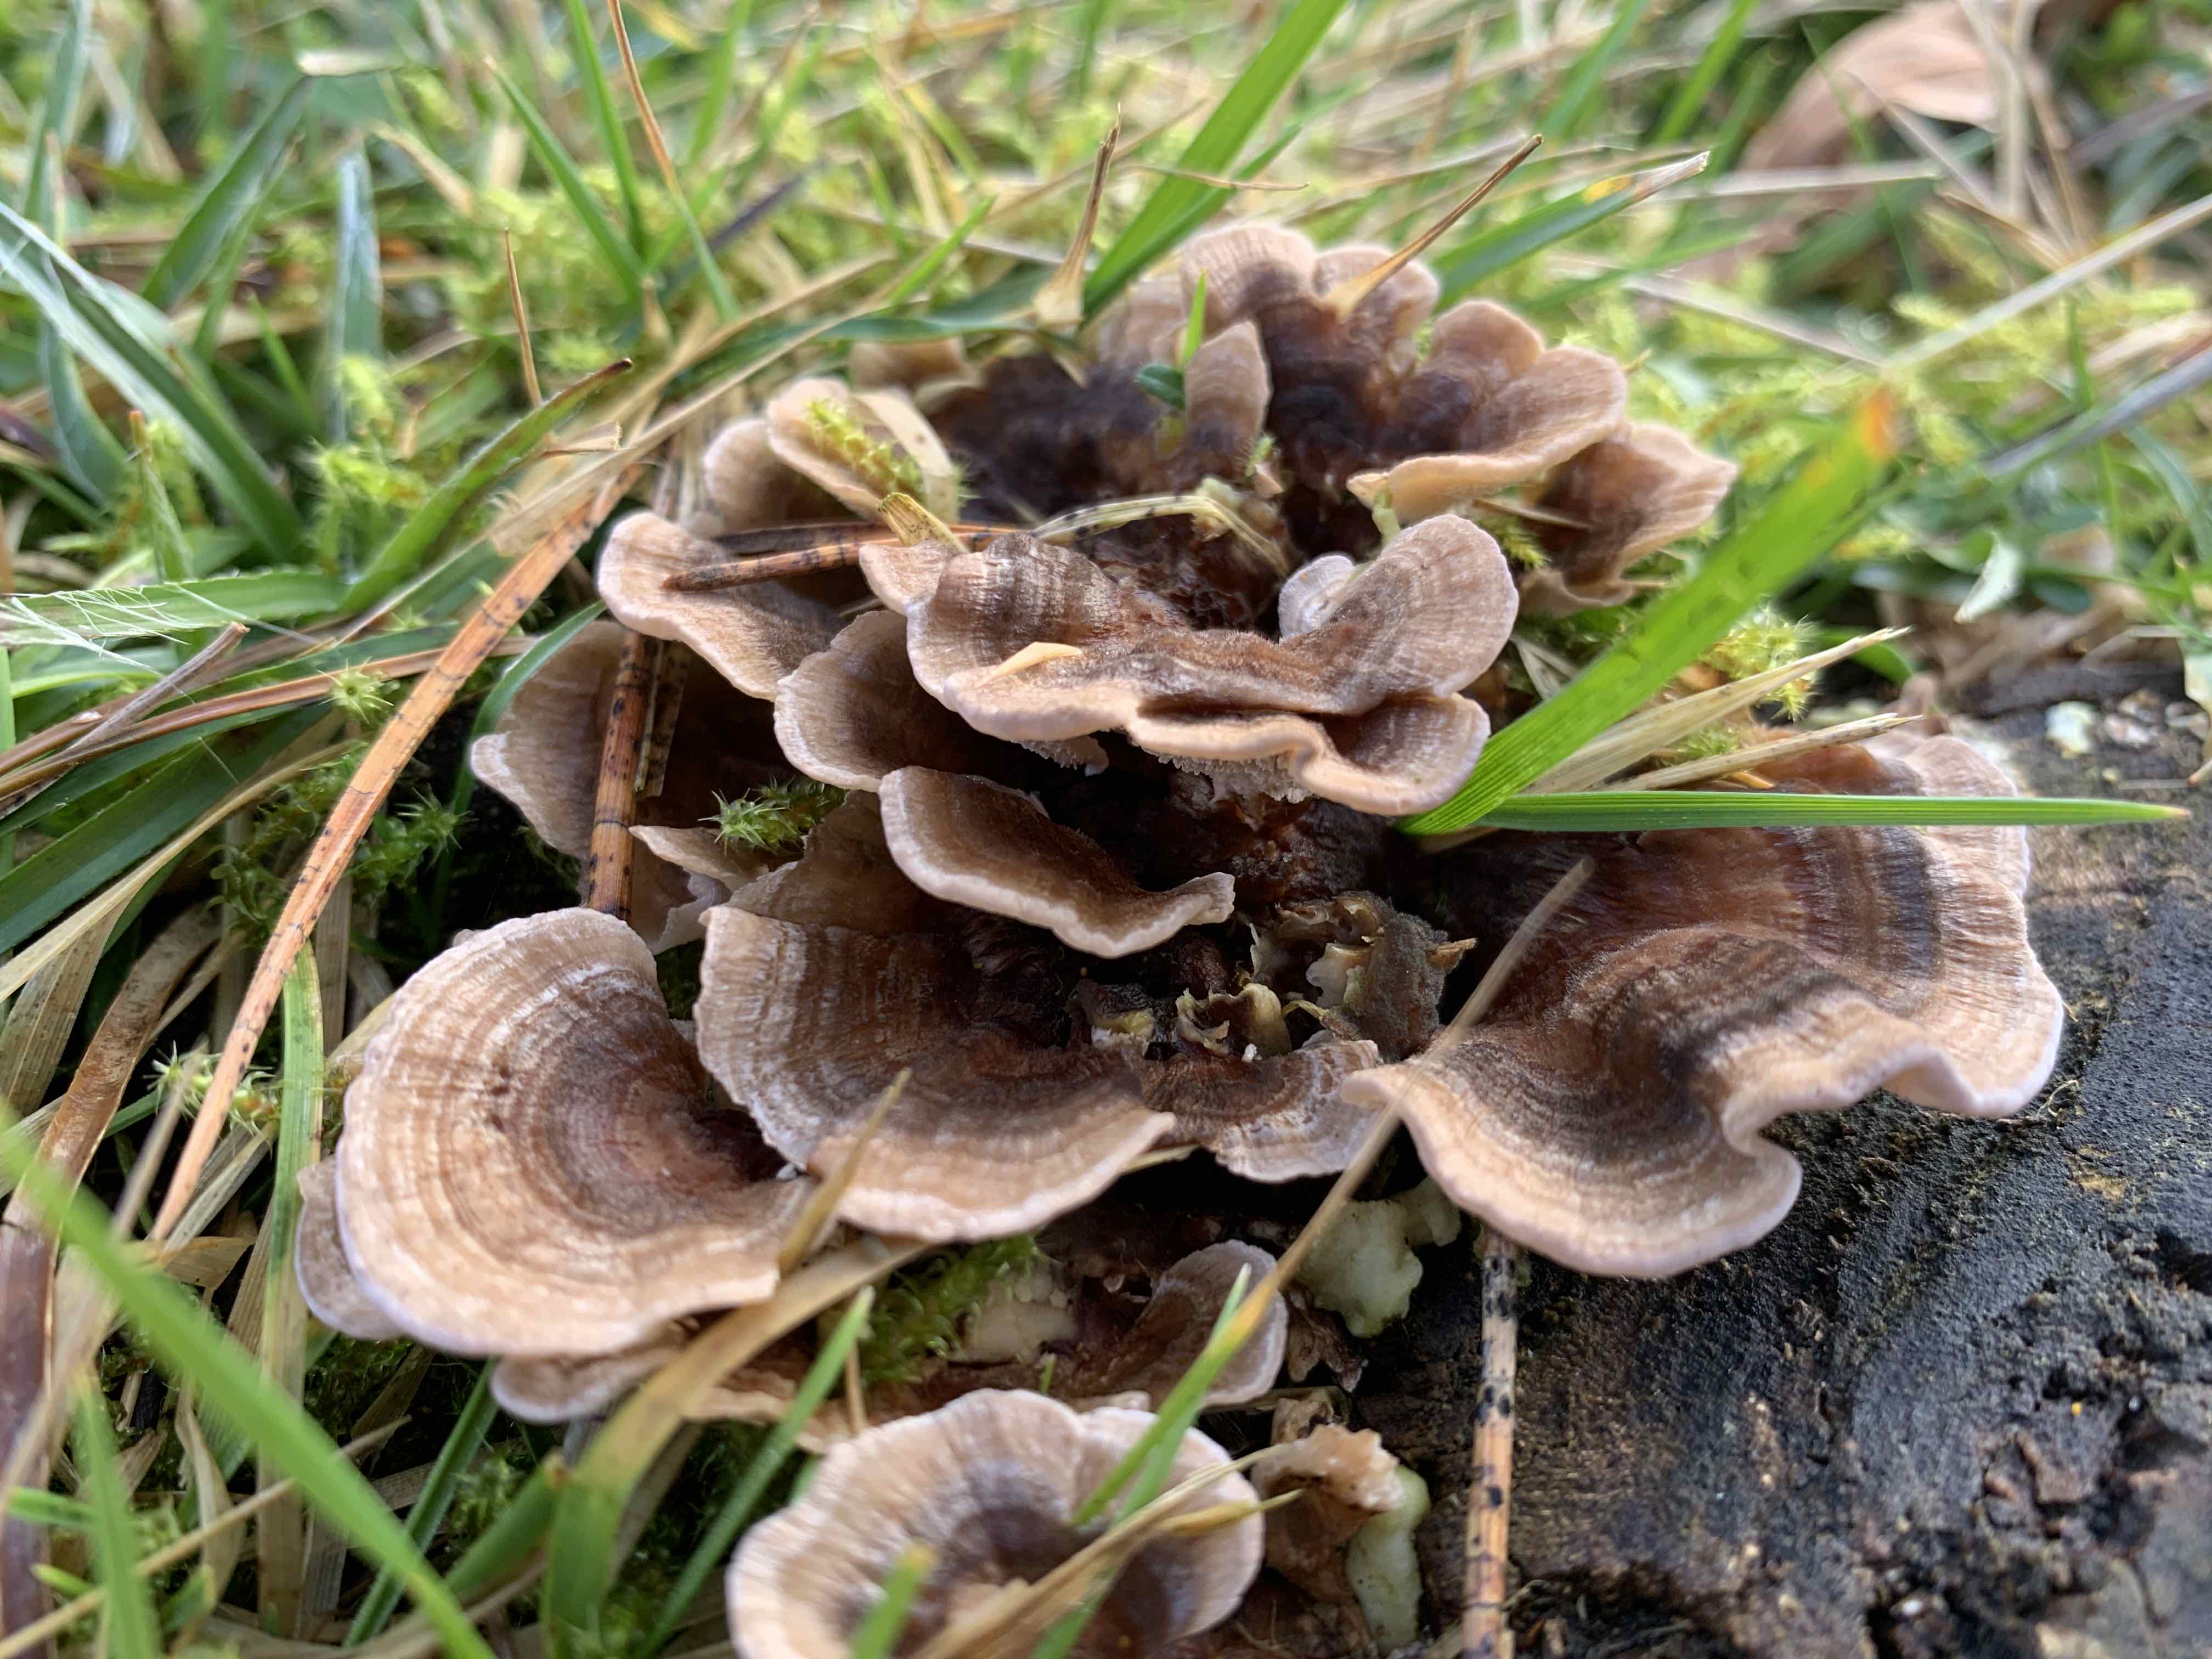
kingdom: Fungi
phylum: Basidiomycota
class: Agaricomycetes
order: Polyporales
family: Polyporaceae
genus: Trametes
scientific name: Trametes versicolor
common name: broget læderporesvamp
